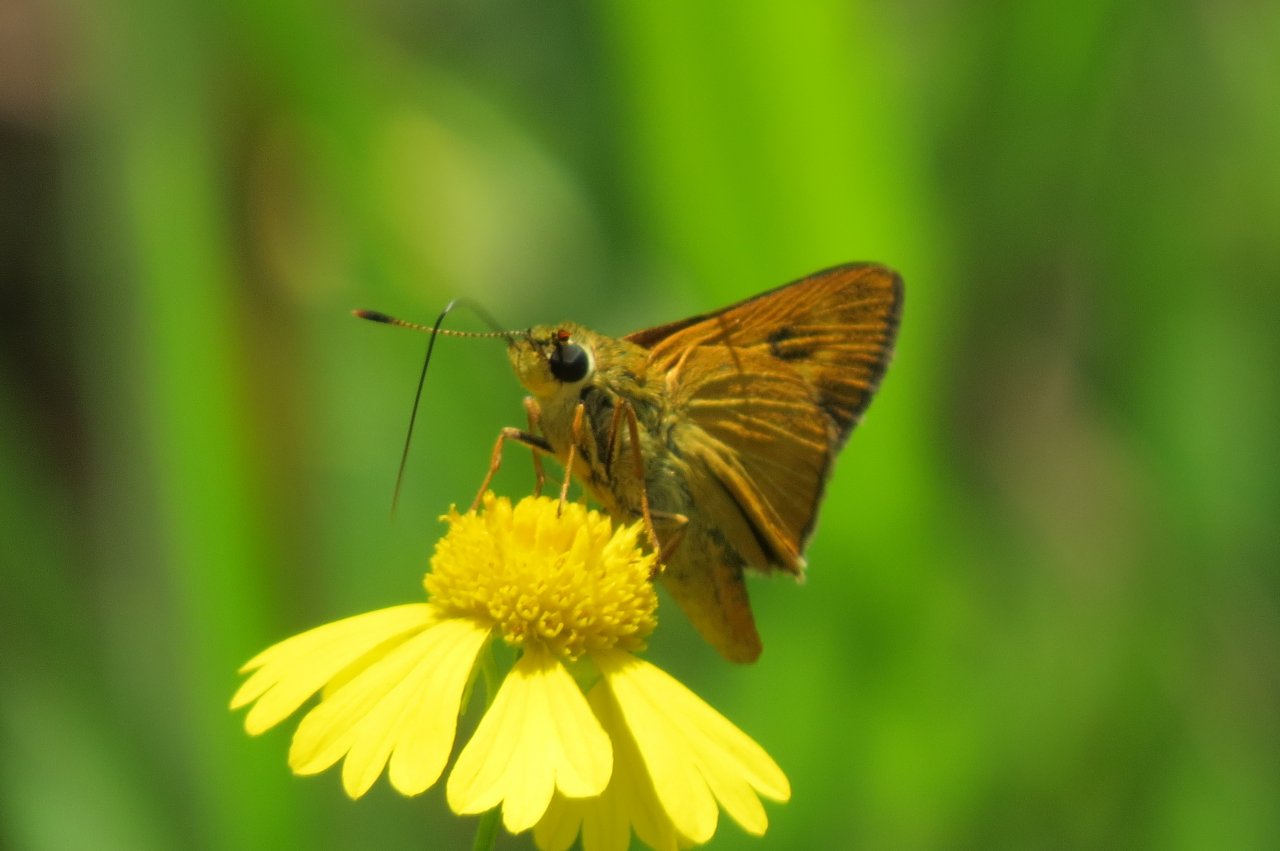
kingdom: Animalia
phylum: Arthropoda
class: Insecta
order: Lepidoptera
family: Hesperiidae
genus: Problema
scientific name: Problema byssus
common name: Byssus Skipper
